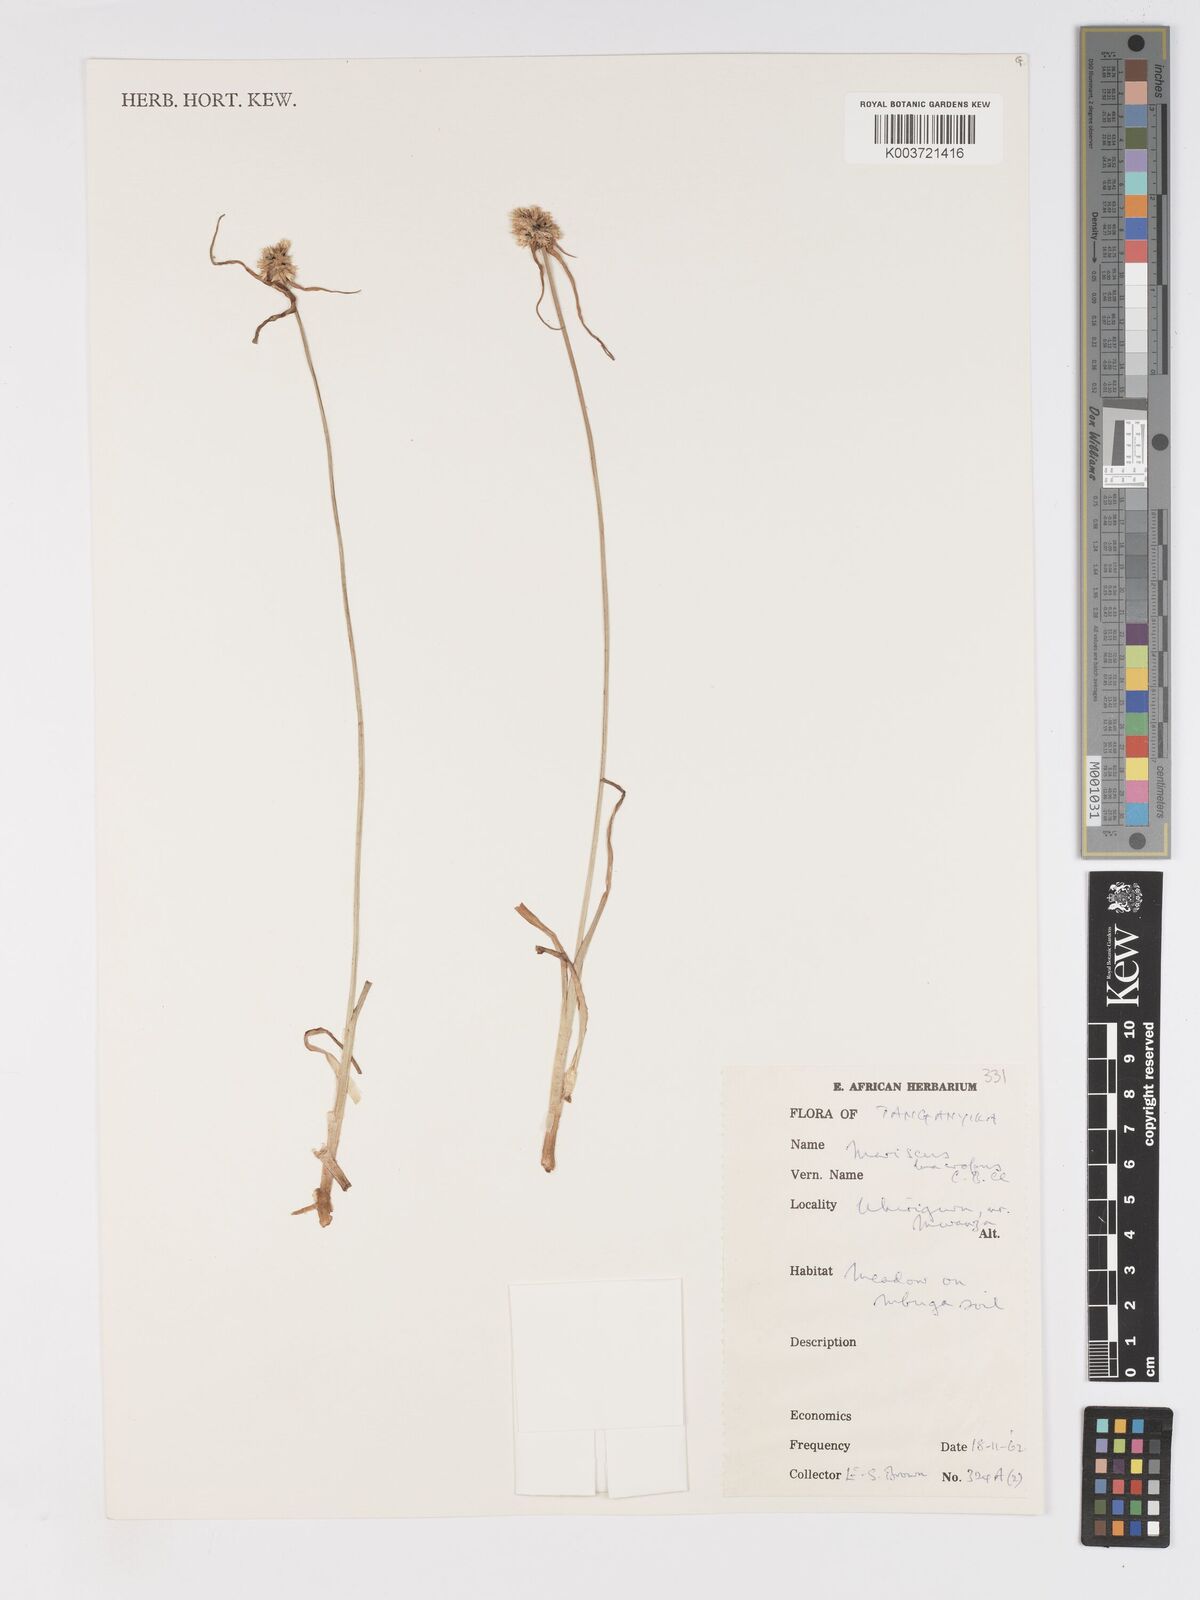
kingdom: Plantae
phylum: Tracheophyta
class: Liliopsida
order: Poales
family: Cyperaceae
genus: Cyperus
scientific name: Cyperus mollipes
